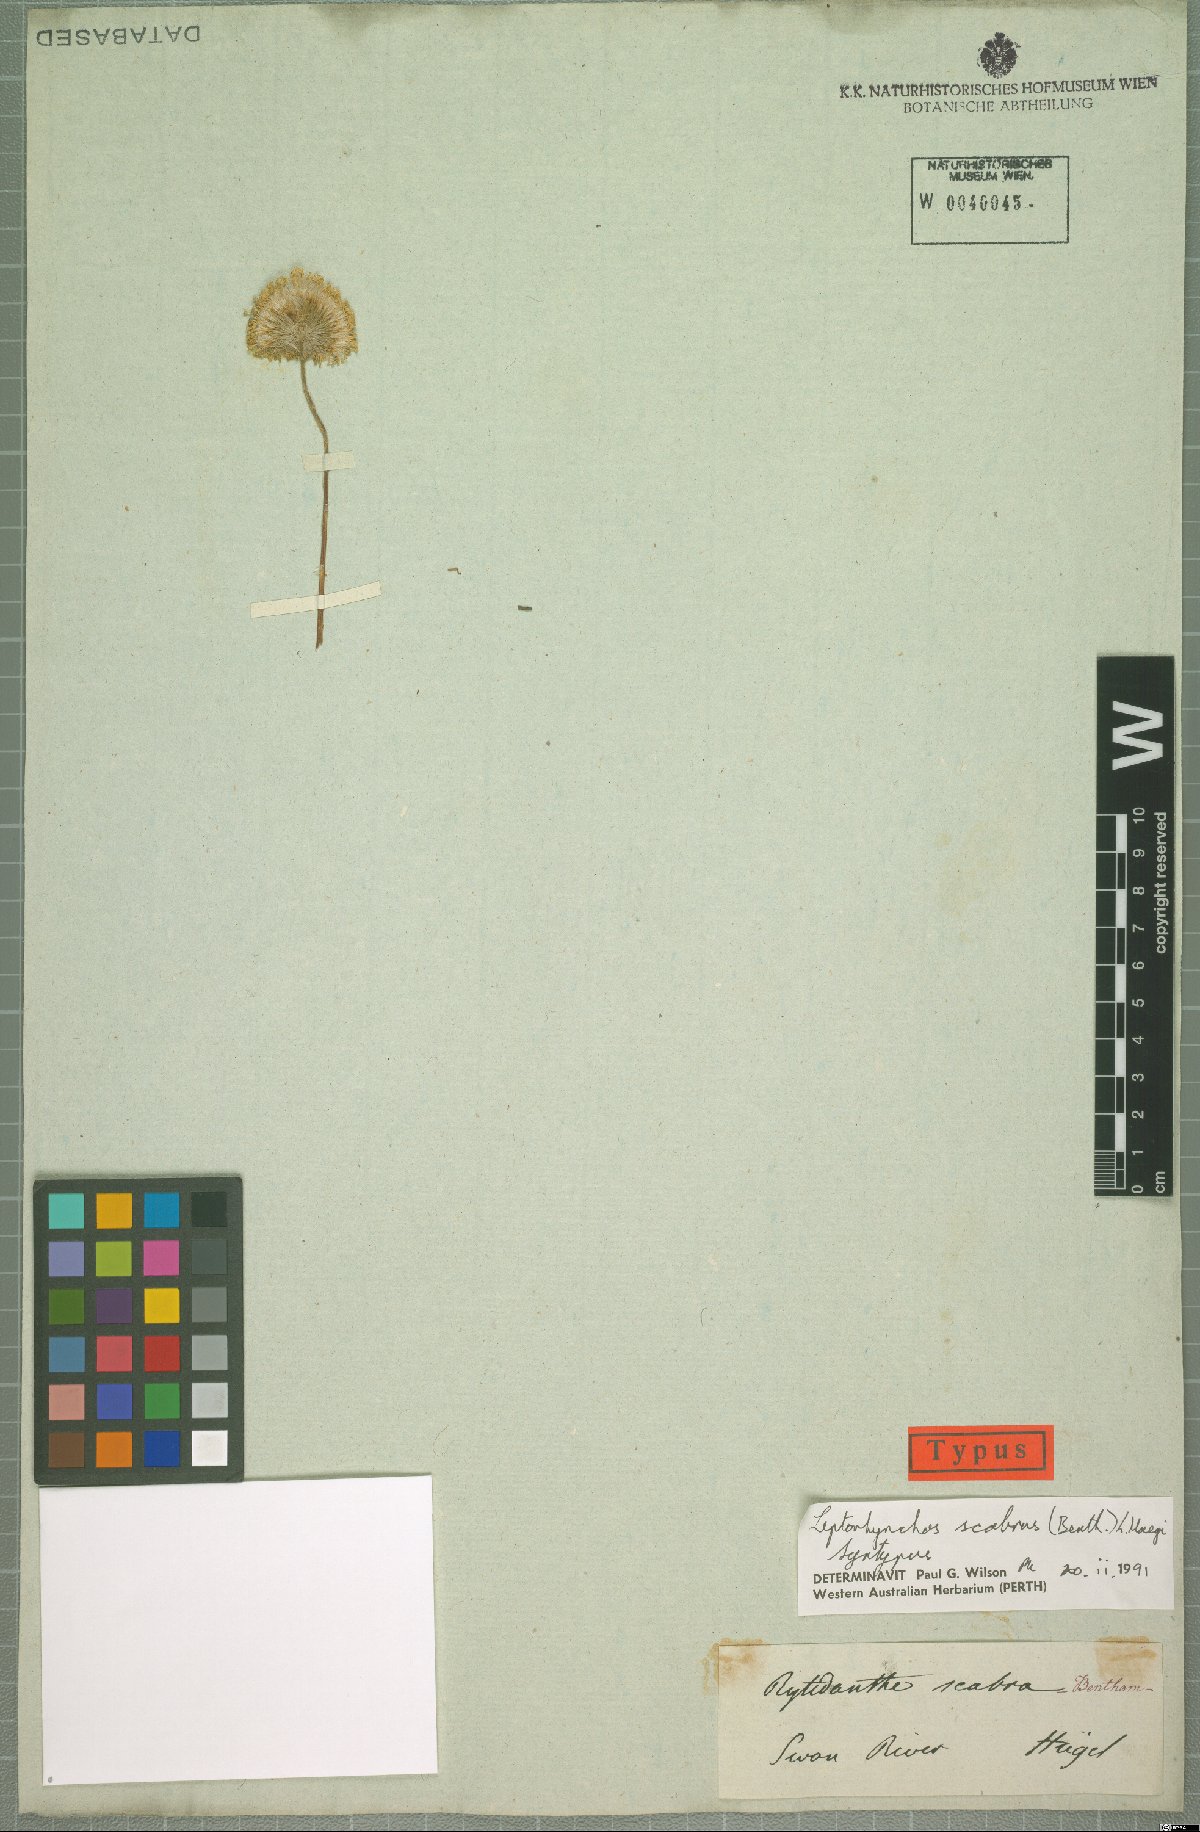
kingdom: Plantae
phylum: Tracheophyta
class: Magnoliopsida
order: Asterales
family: Asteraceae
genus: Leptorhynchos
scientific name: Leptorhynchos scabrus
